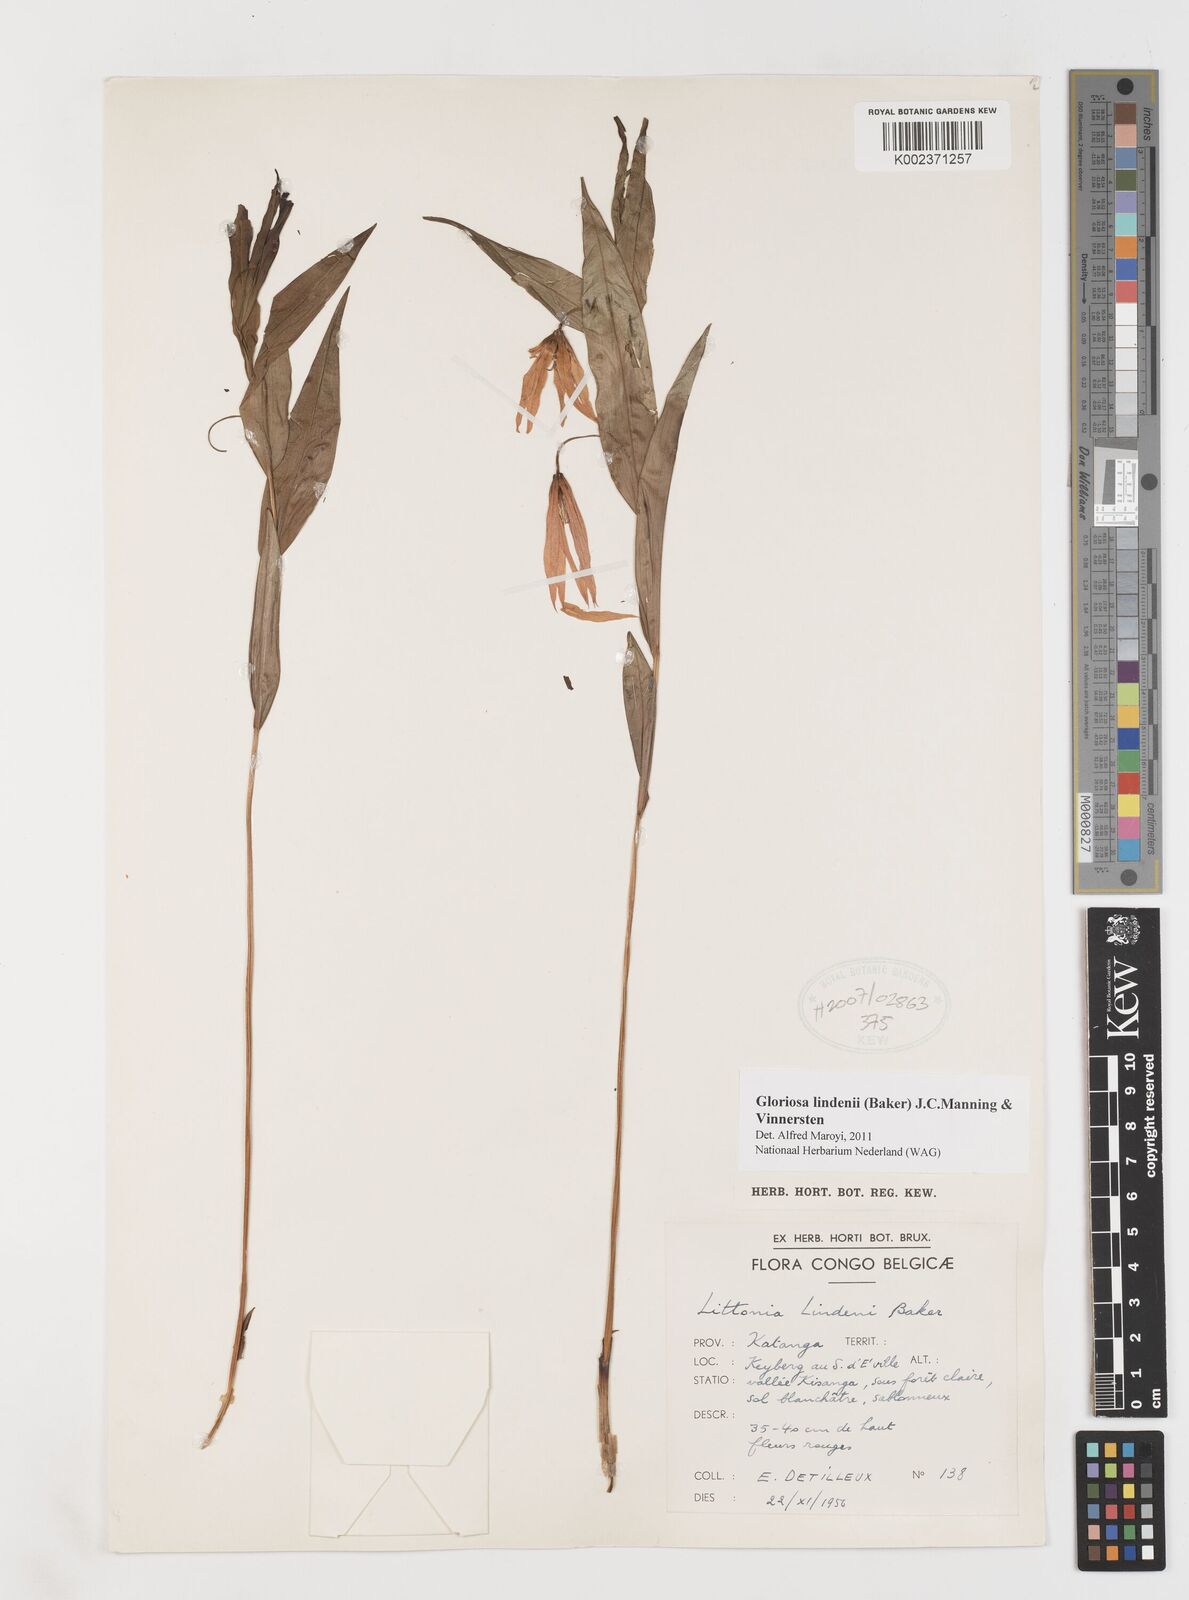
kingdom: Plantae
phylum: Tracheophyta
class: Liliopsida
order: Liliales
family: Colchicaceae
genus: Gloriosa
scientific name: Gloriosa lindenii
